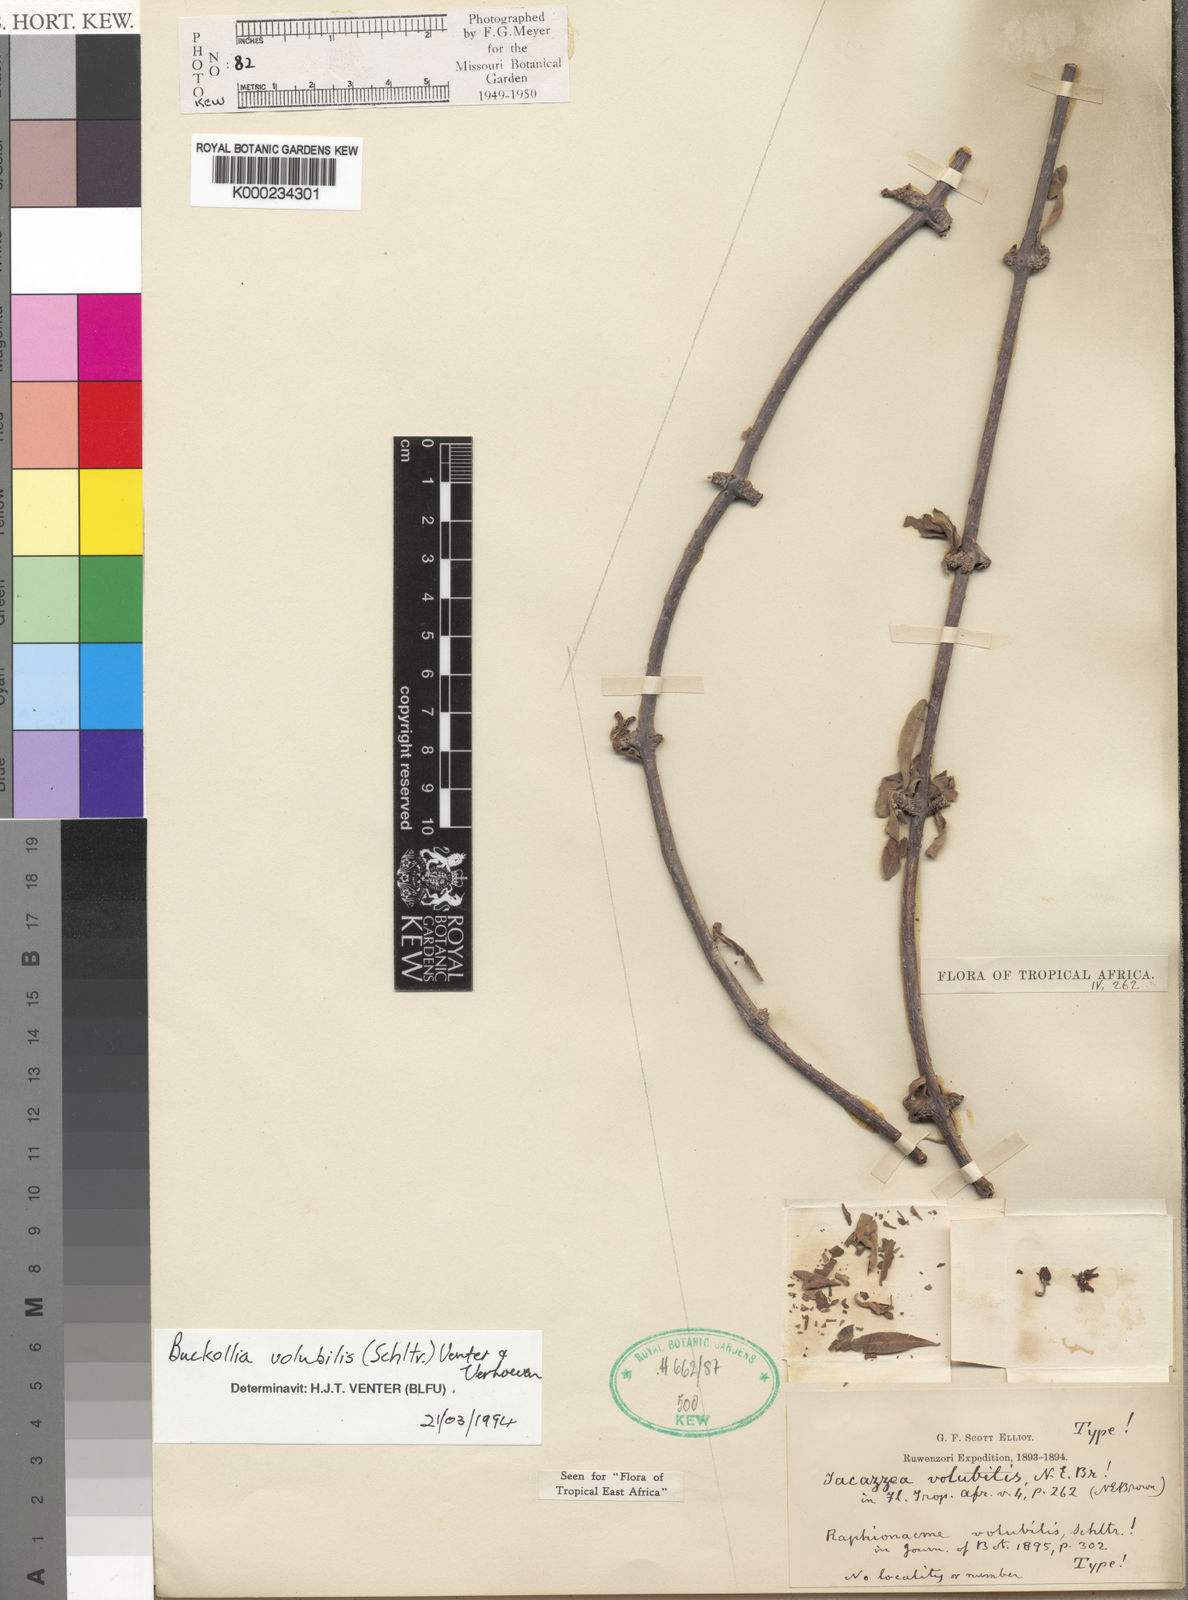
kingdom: Plantae
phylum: Tracheophyta
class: Magnoliopsida
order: Gentianales
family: Apocynaceae
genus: Buckollia
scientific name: Buckollia volubilis
